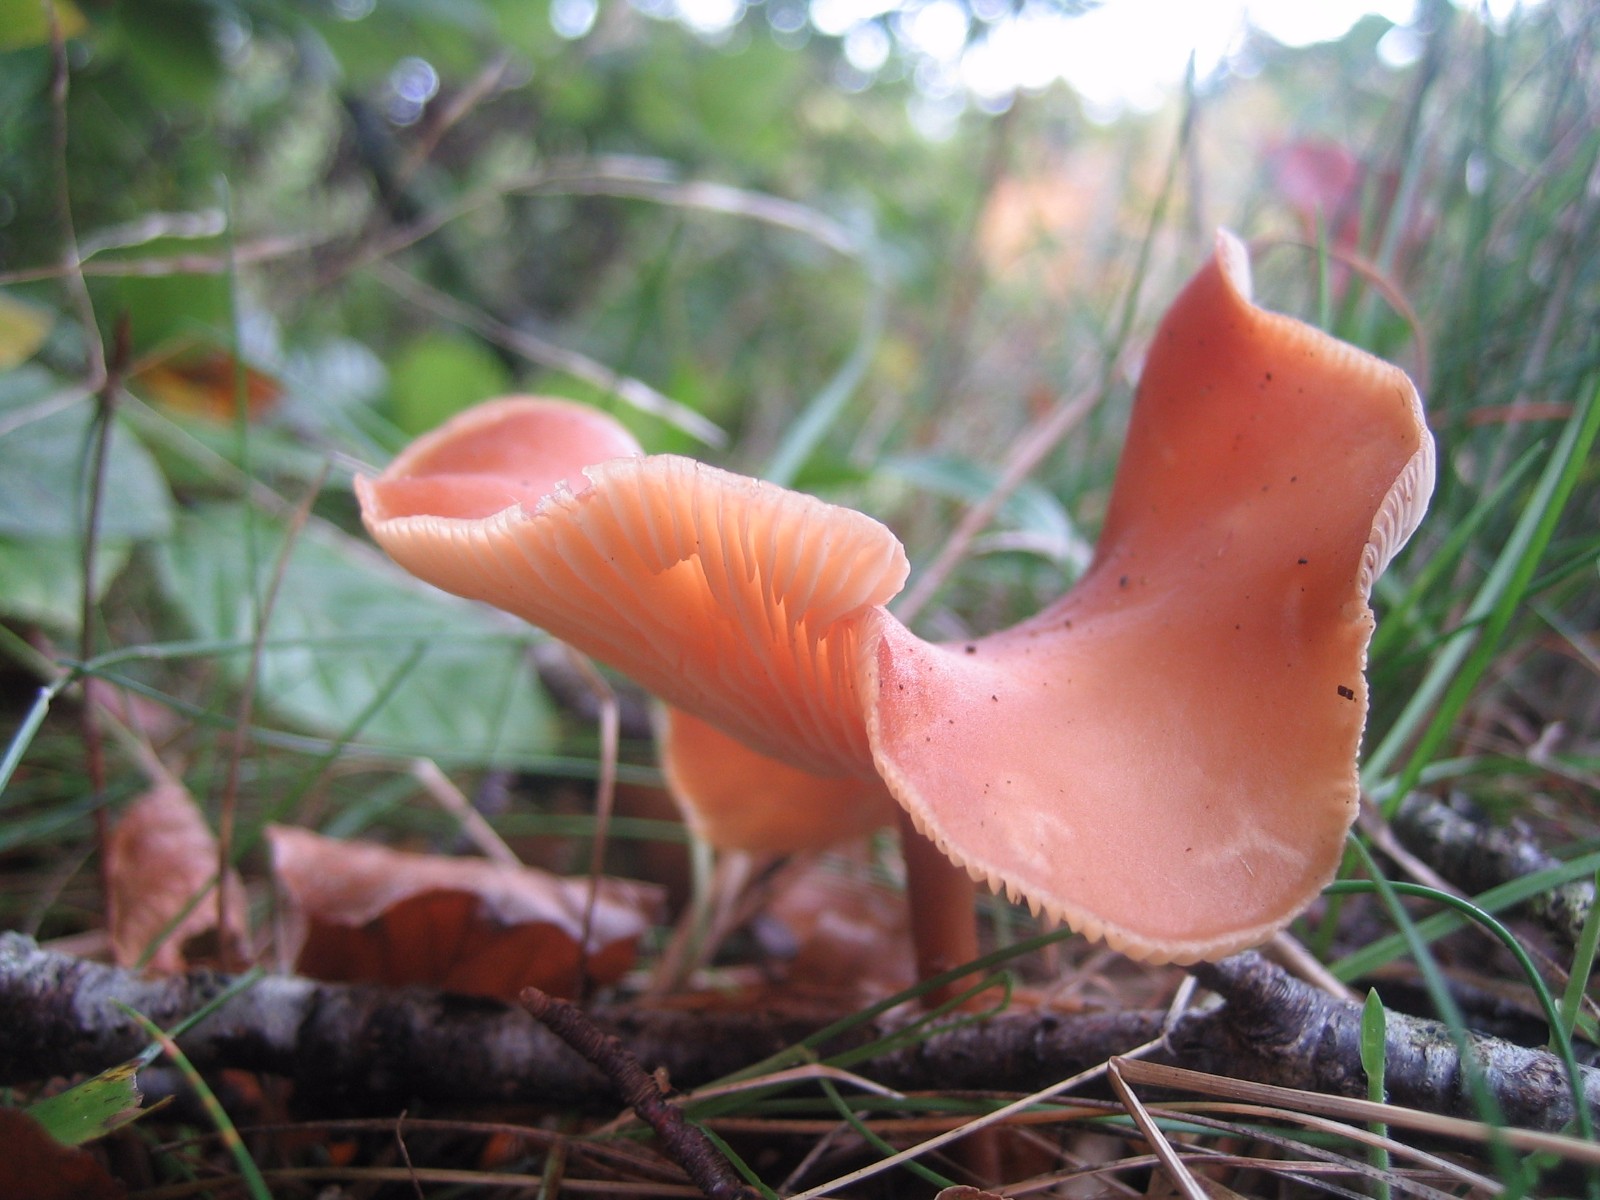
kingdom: Fungi
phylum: Basidiomycota
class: Agaricomycetes
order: Agaricales
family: Omphalotaceae
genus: Gymnopus
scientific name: Gymnopus
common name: fladhat
